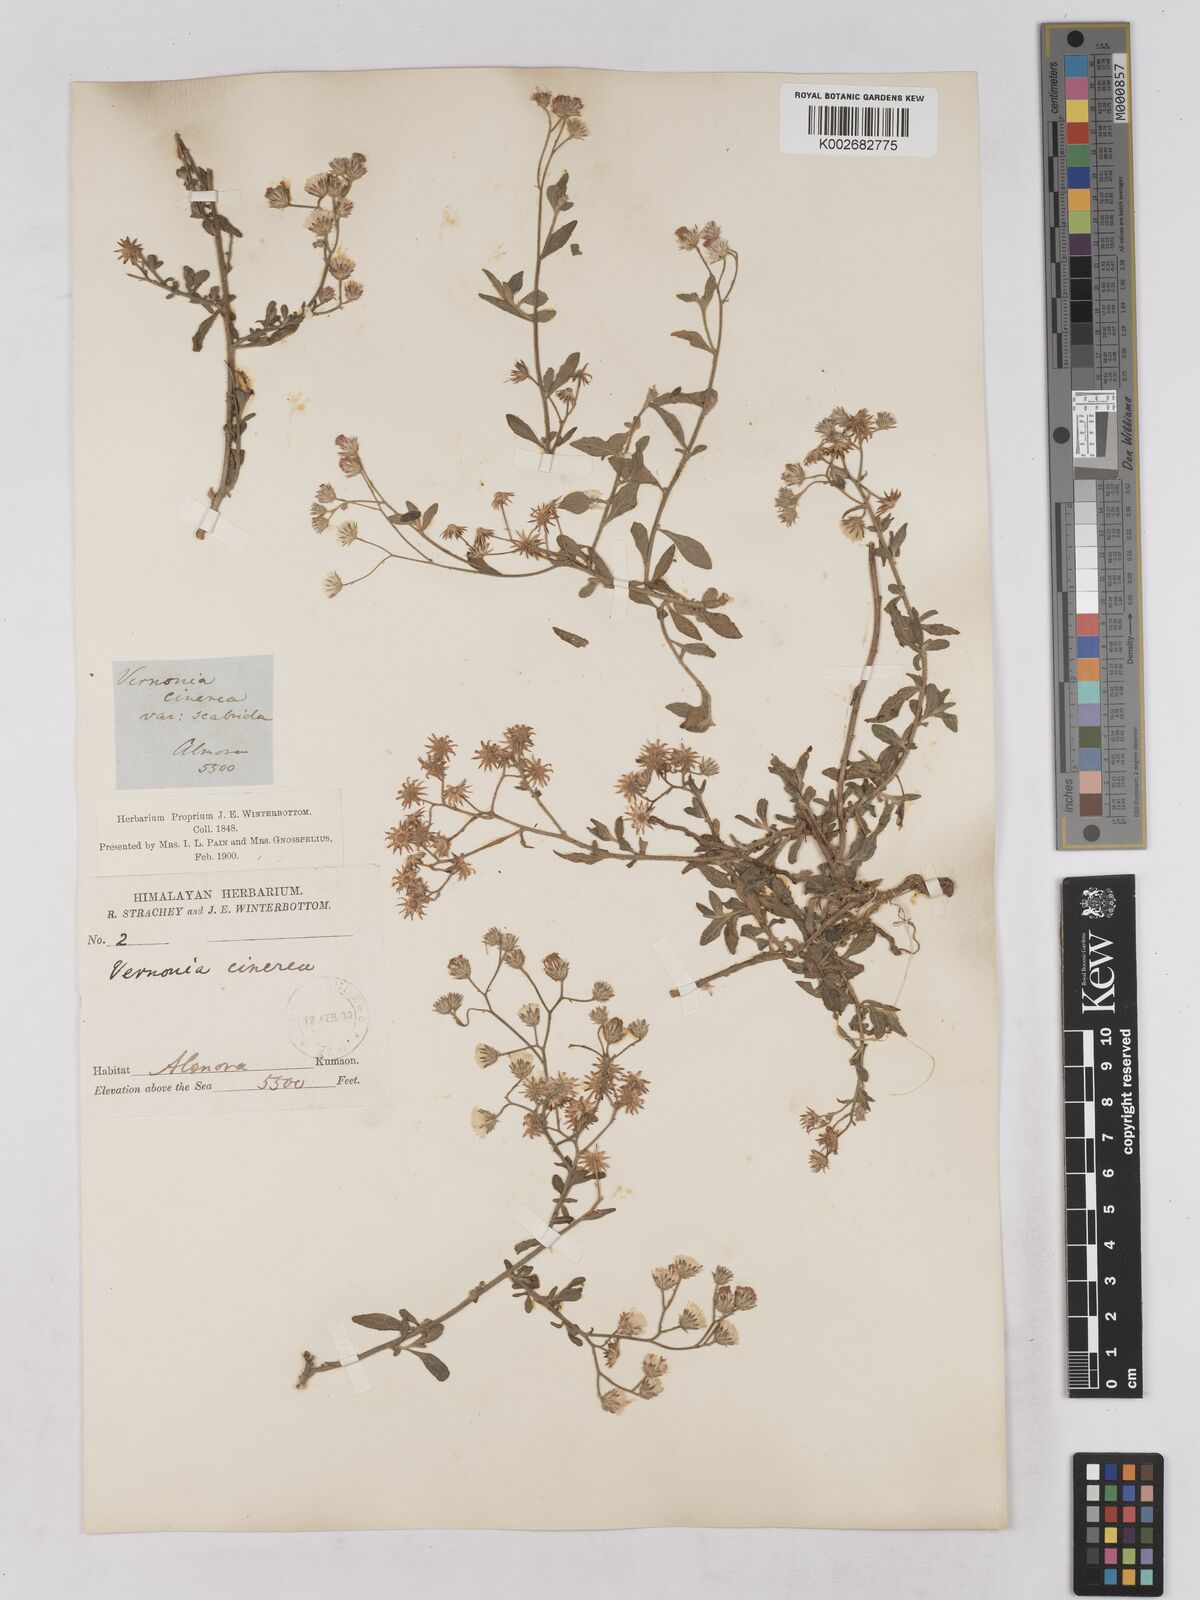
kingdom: Plantae
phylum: Tracheophyta
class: Magnoliopsida
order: Asterales
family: Asteraceae
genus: Cyanthillium
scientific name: Cyanthillium cinereum
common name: Little ironweed
